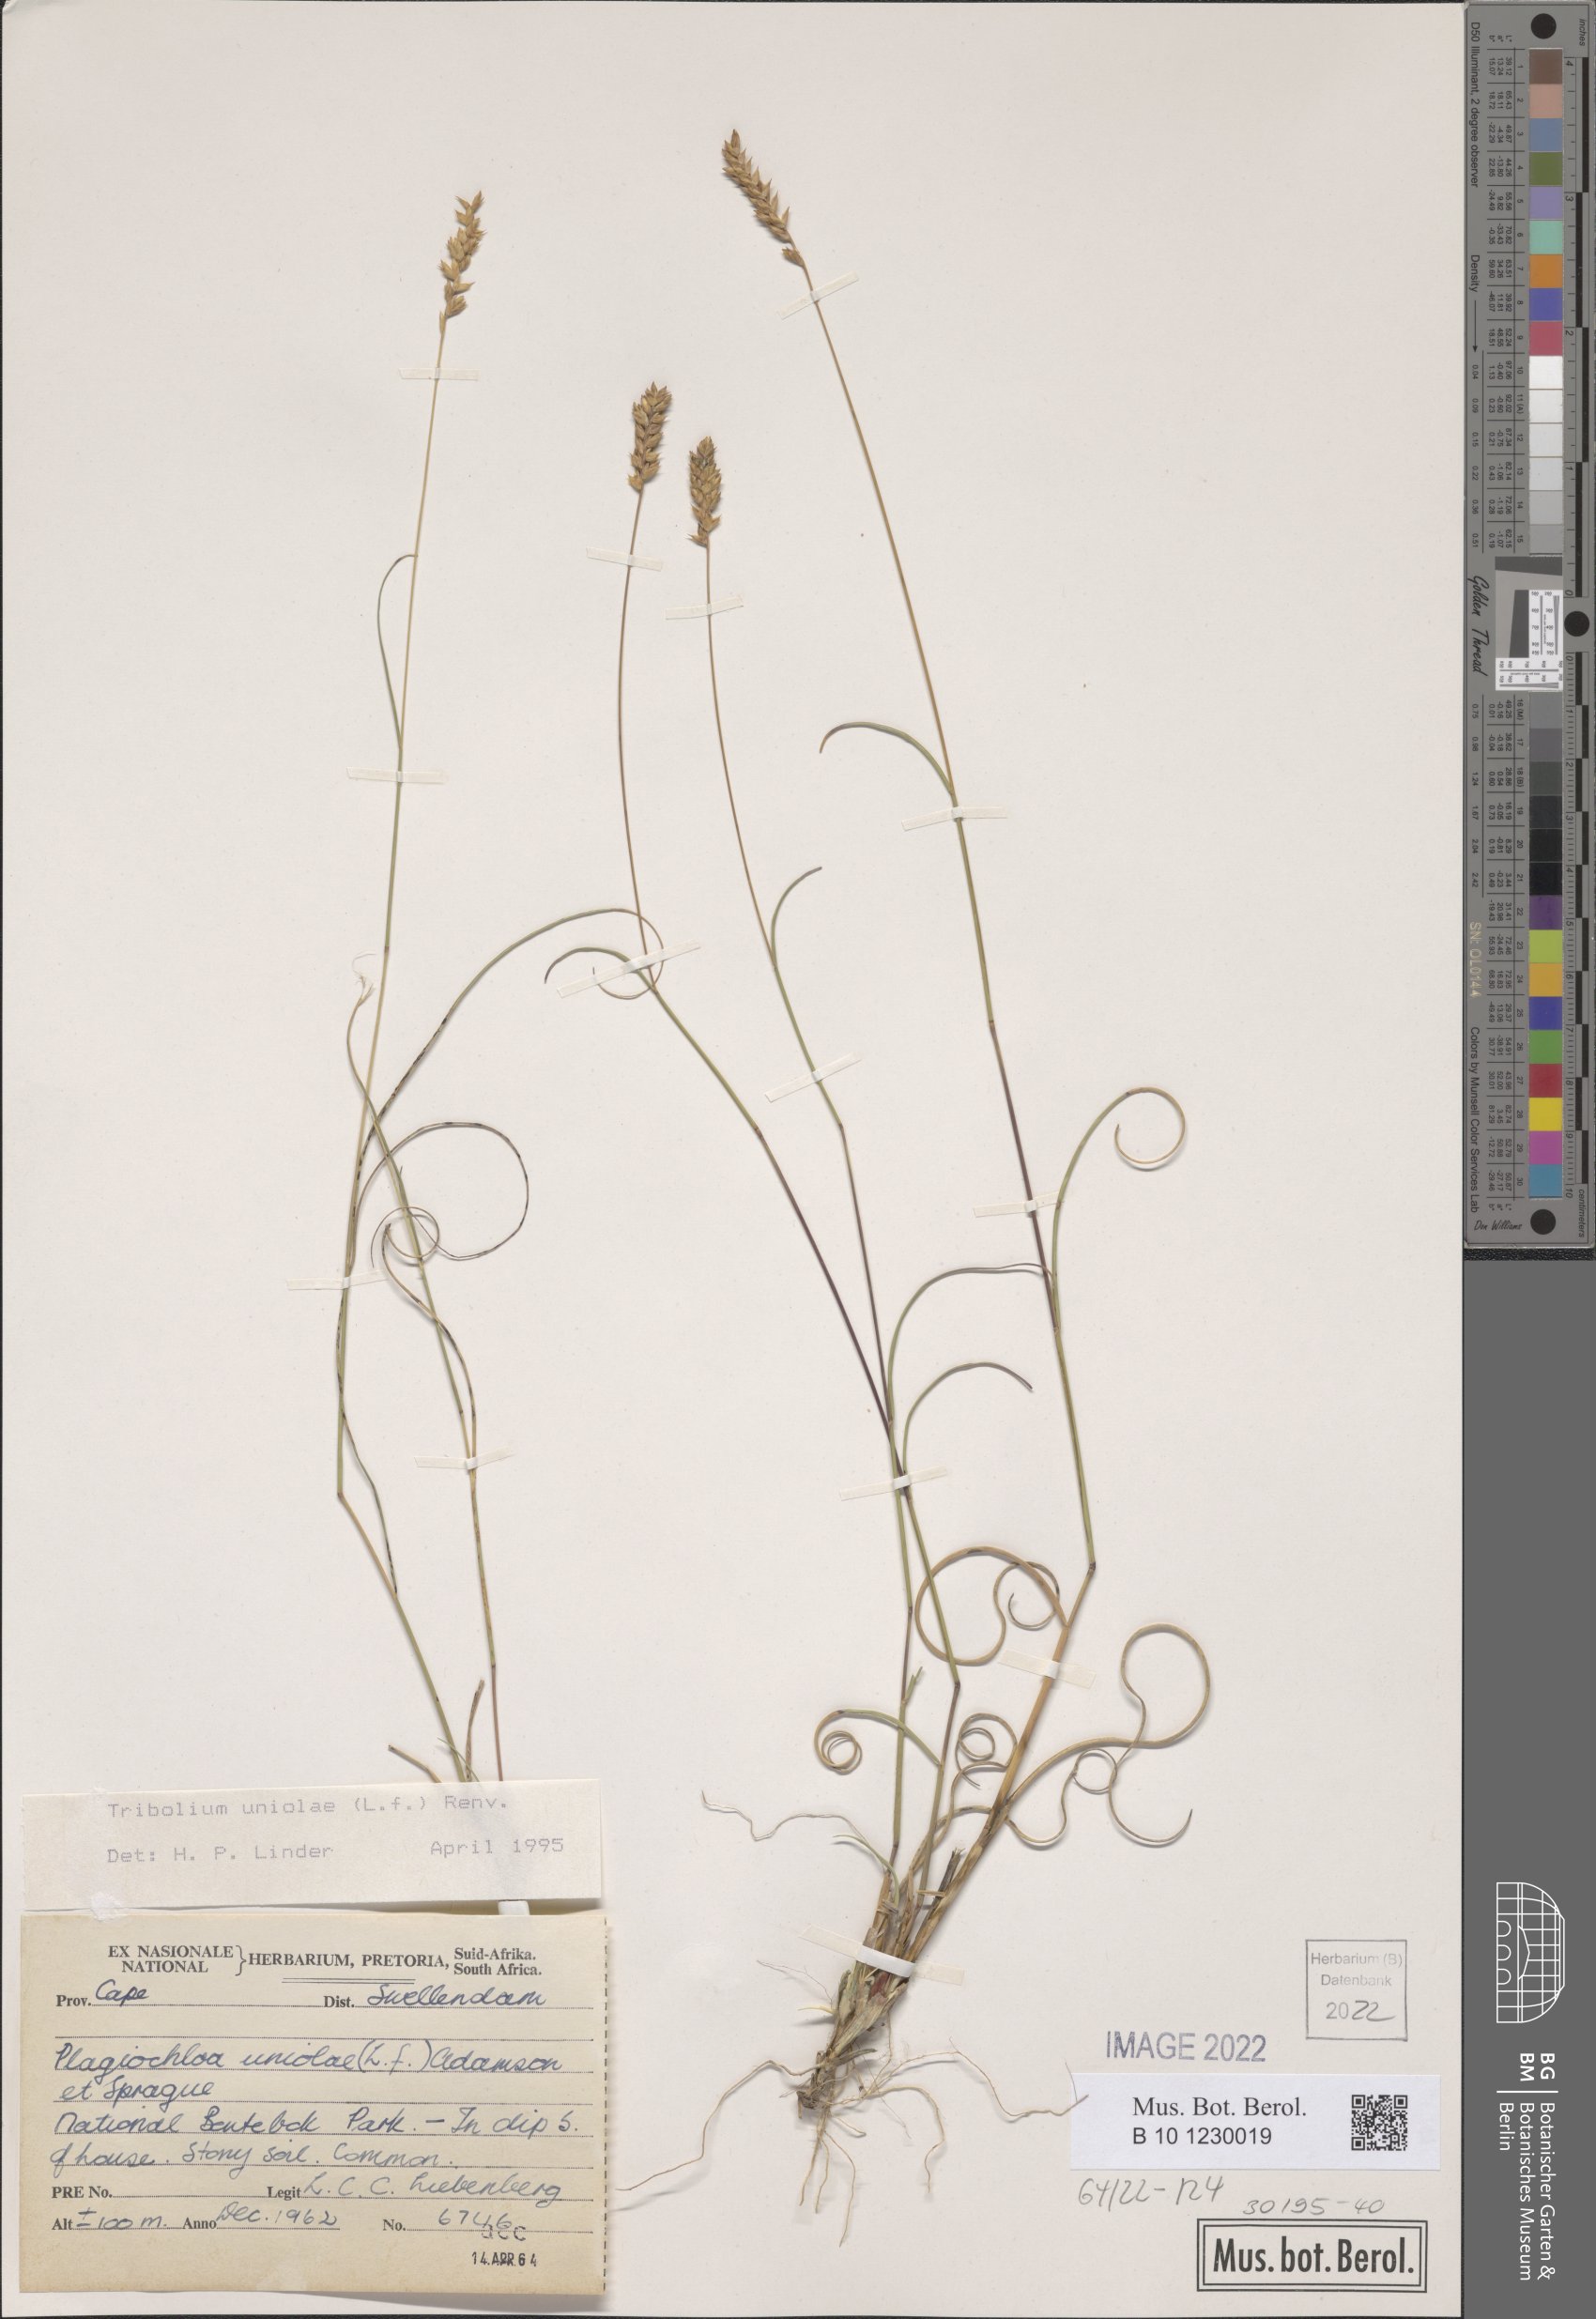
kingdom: Plantae
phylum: Tracheophyta
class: Liliopsida
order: Poales
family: Poaceae
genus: Tribolium
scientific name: Tribolium uniolae
